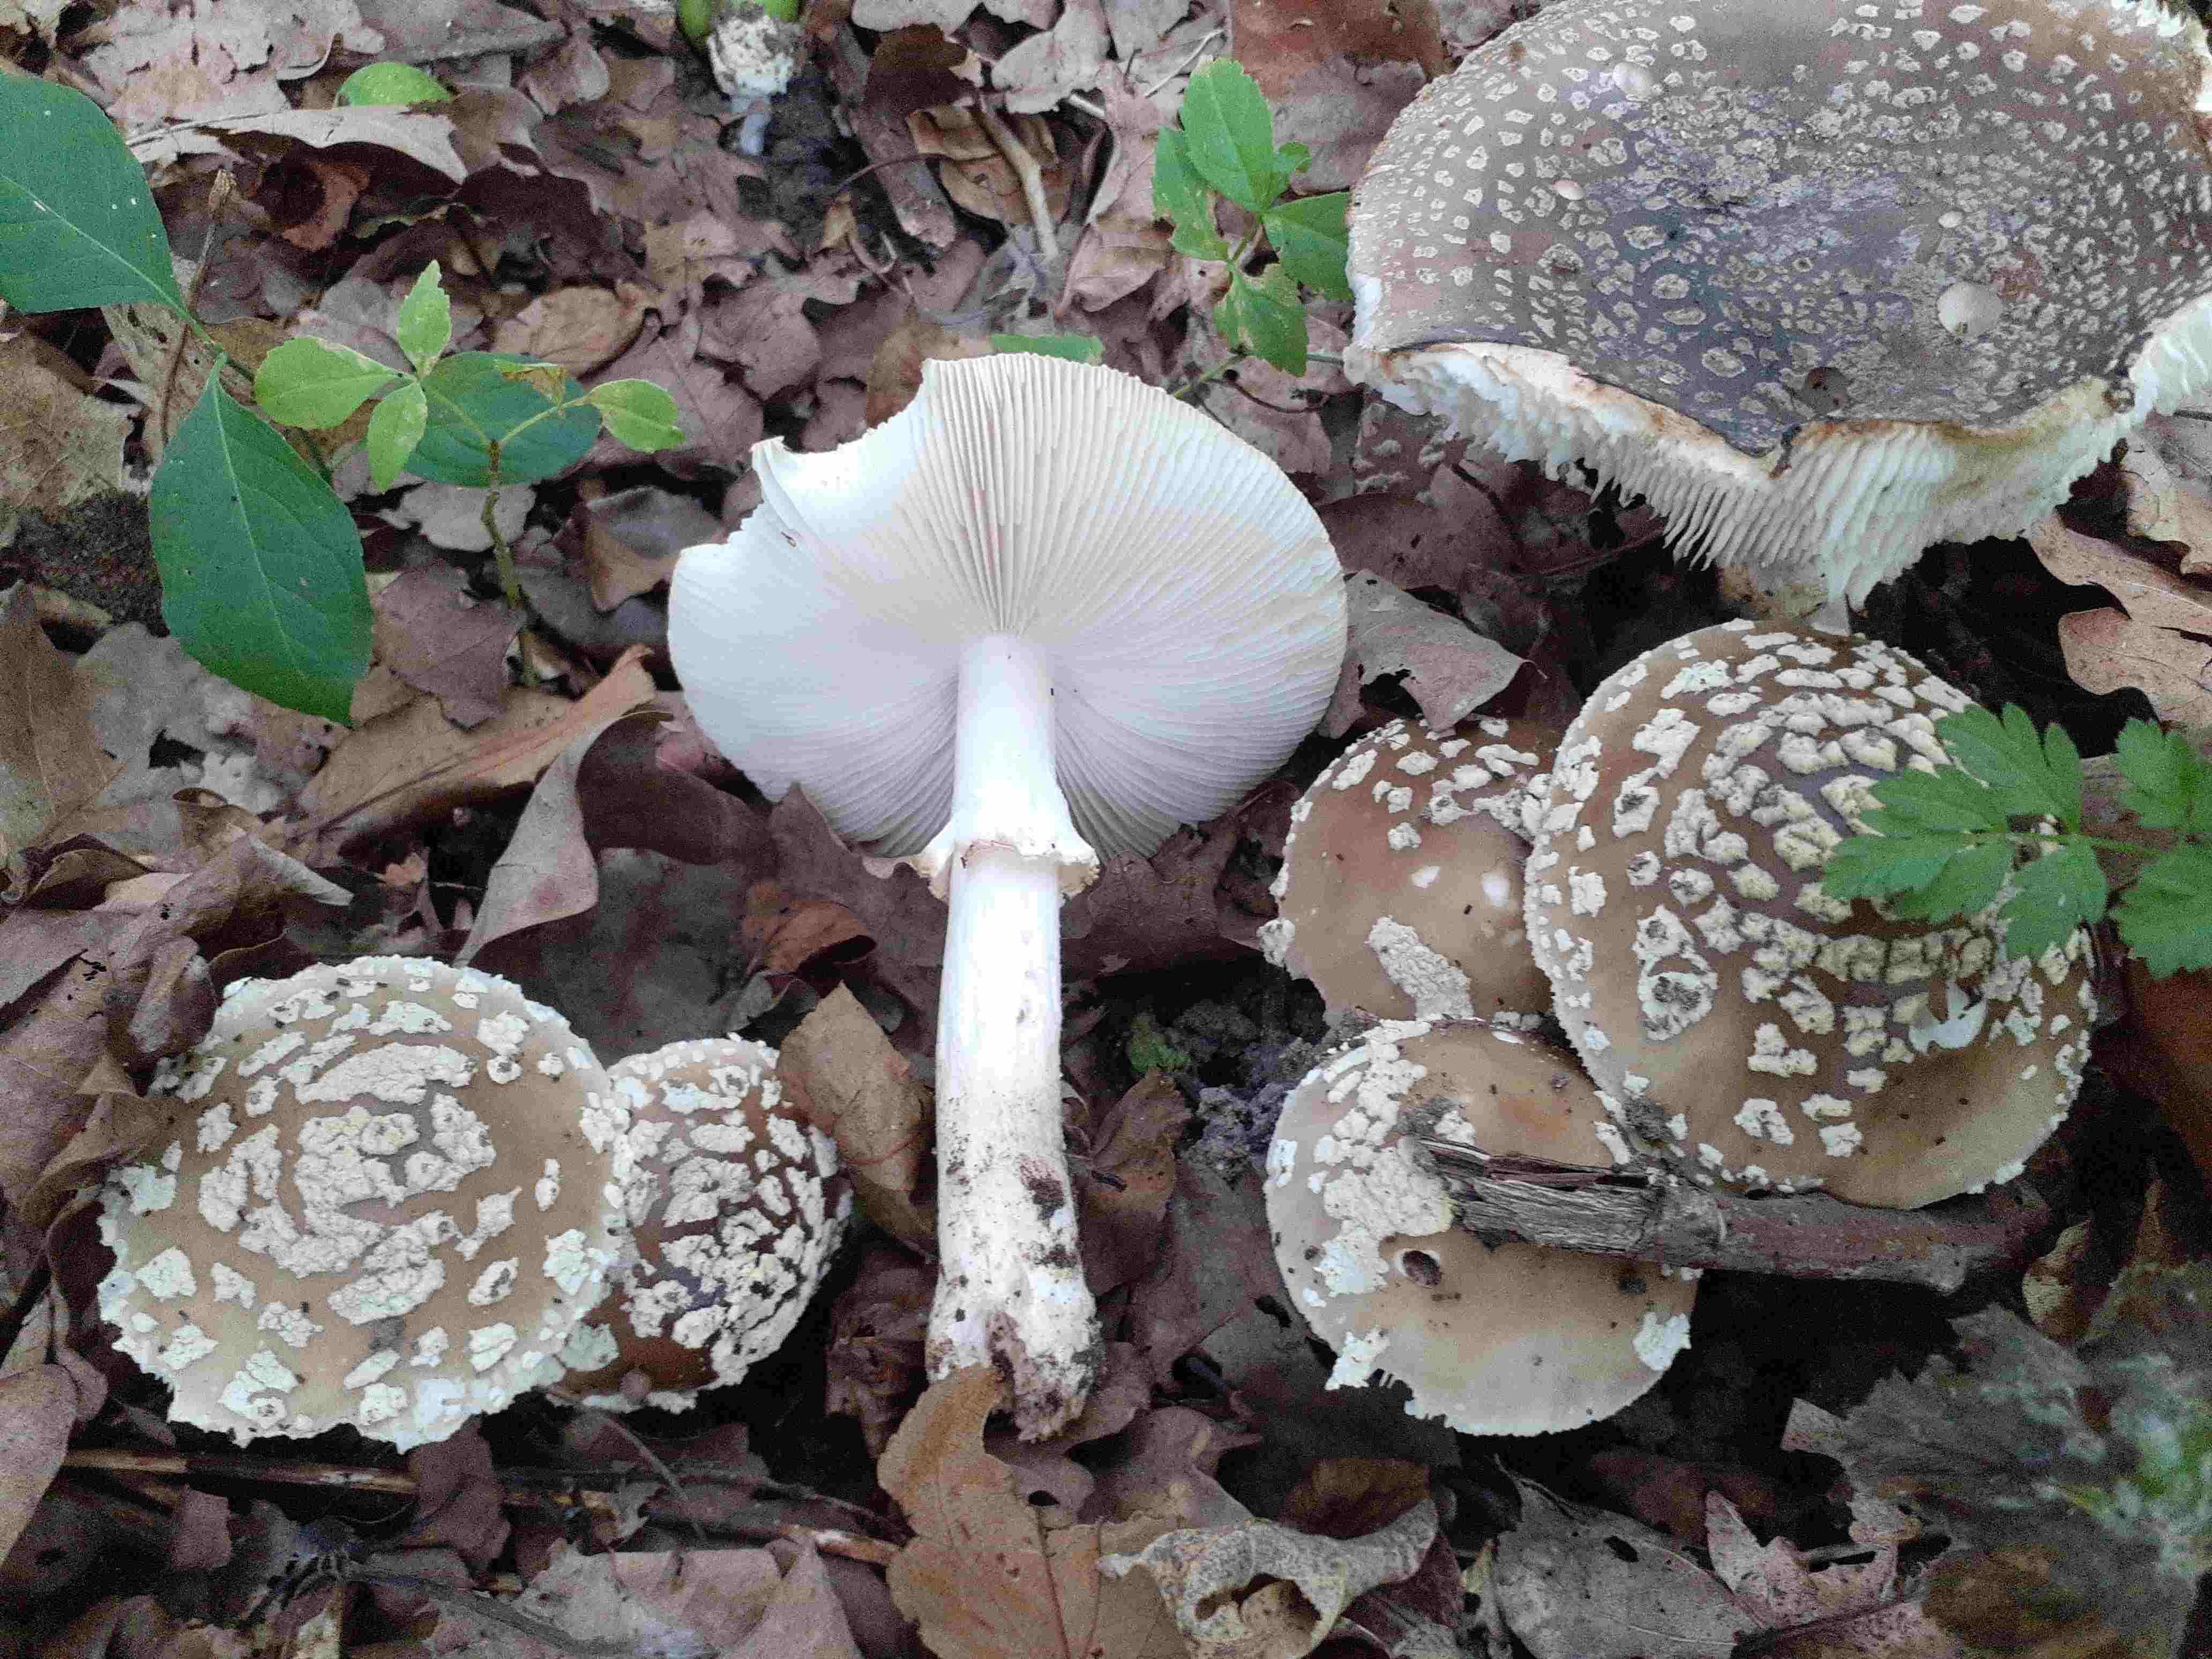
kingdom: Fungi
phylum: Basidiomycota
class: Agaricomycetes
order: Agaricales
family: Amanitaceae
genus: Amanita
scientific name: Amanita pantherina
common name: panter-fluesvamp
